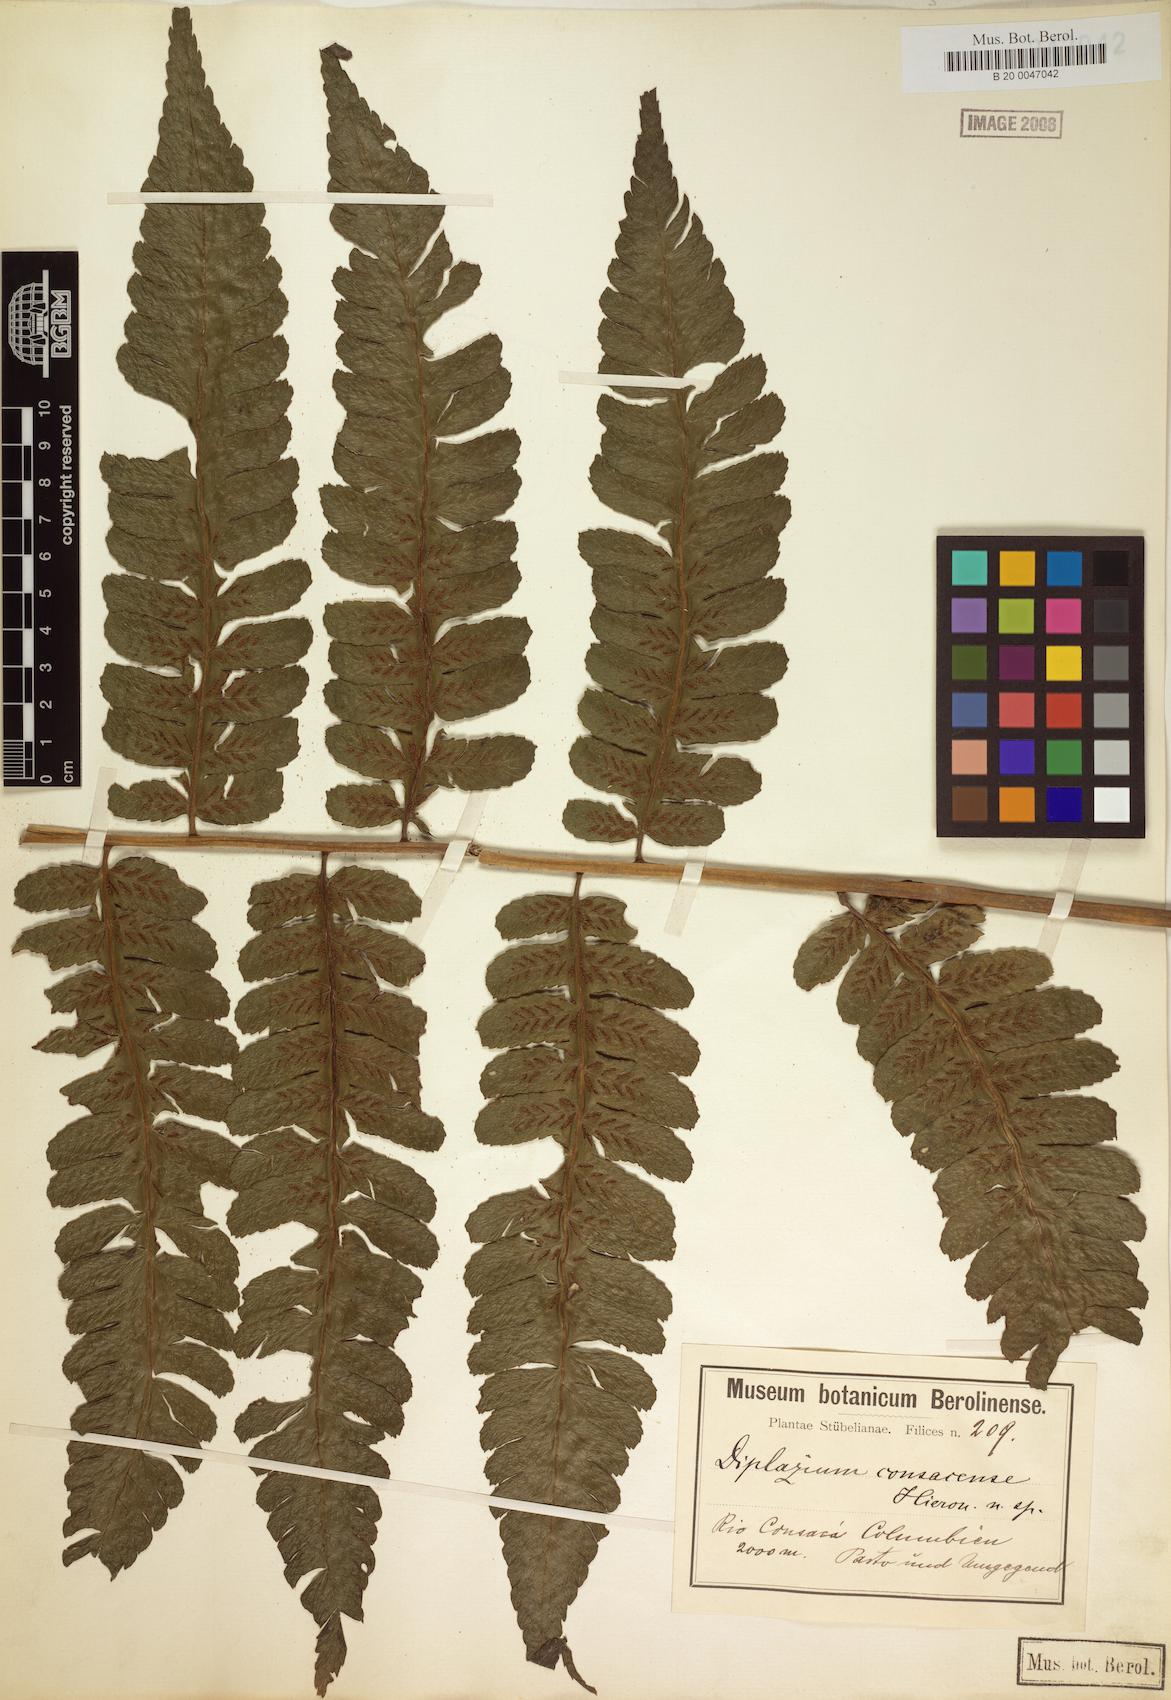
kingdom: Plantae
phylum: Tracheophyta
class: Polypodiopsida
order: Polypodiales
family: Athyriaceae
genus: Diplazium
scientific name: Diplazium consacense
